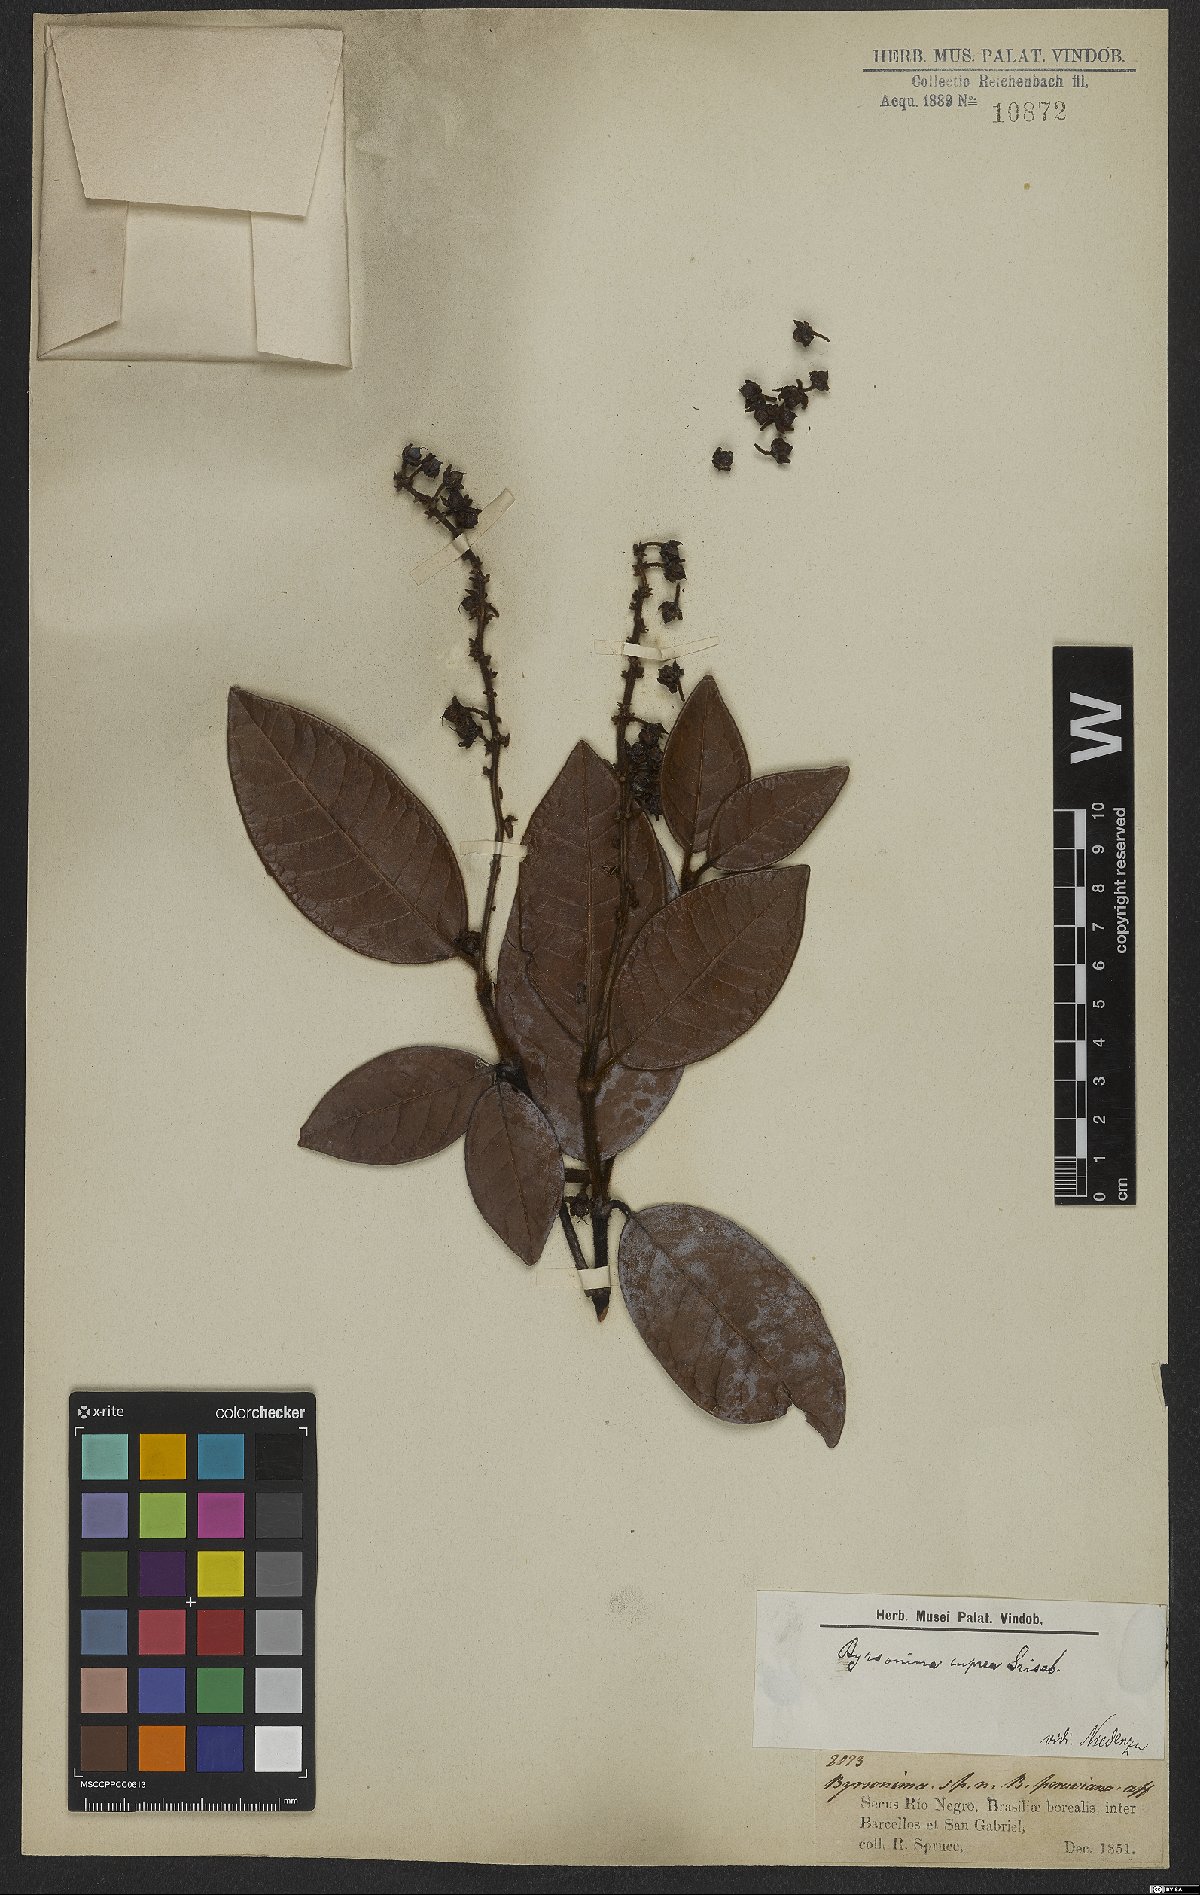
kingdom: Plantae
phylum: Tracheophyta
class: Magnoliopsida
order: Malpighiales
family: Malpighiaceae
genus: Byrsonima
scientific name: Byrsonima cuprea
